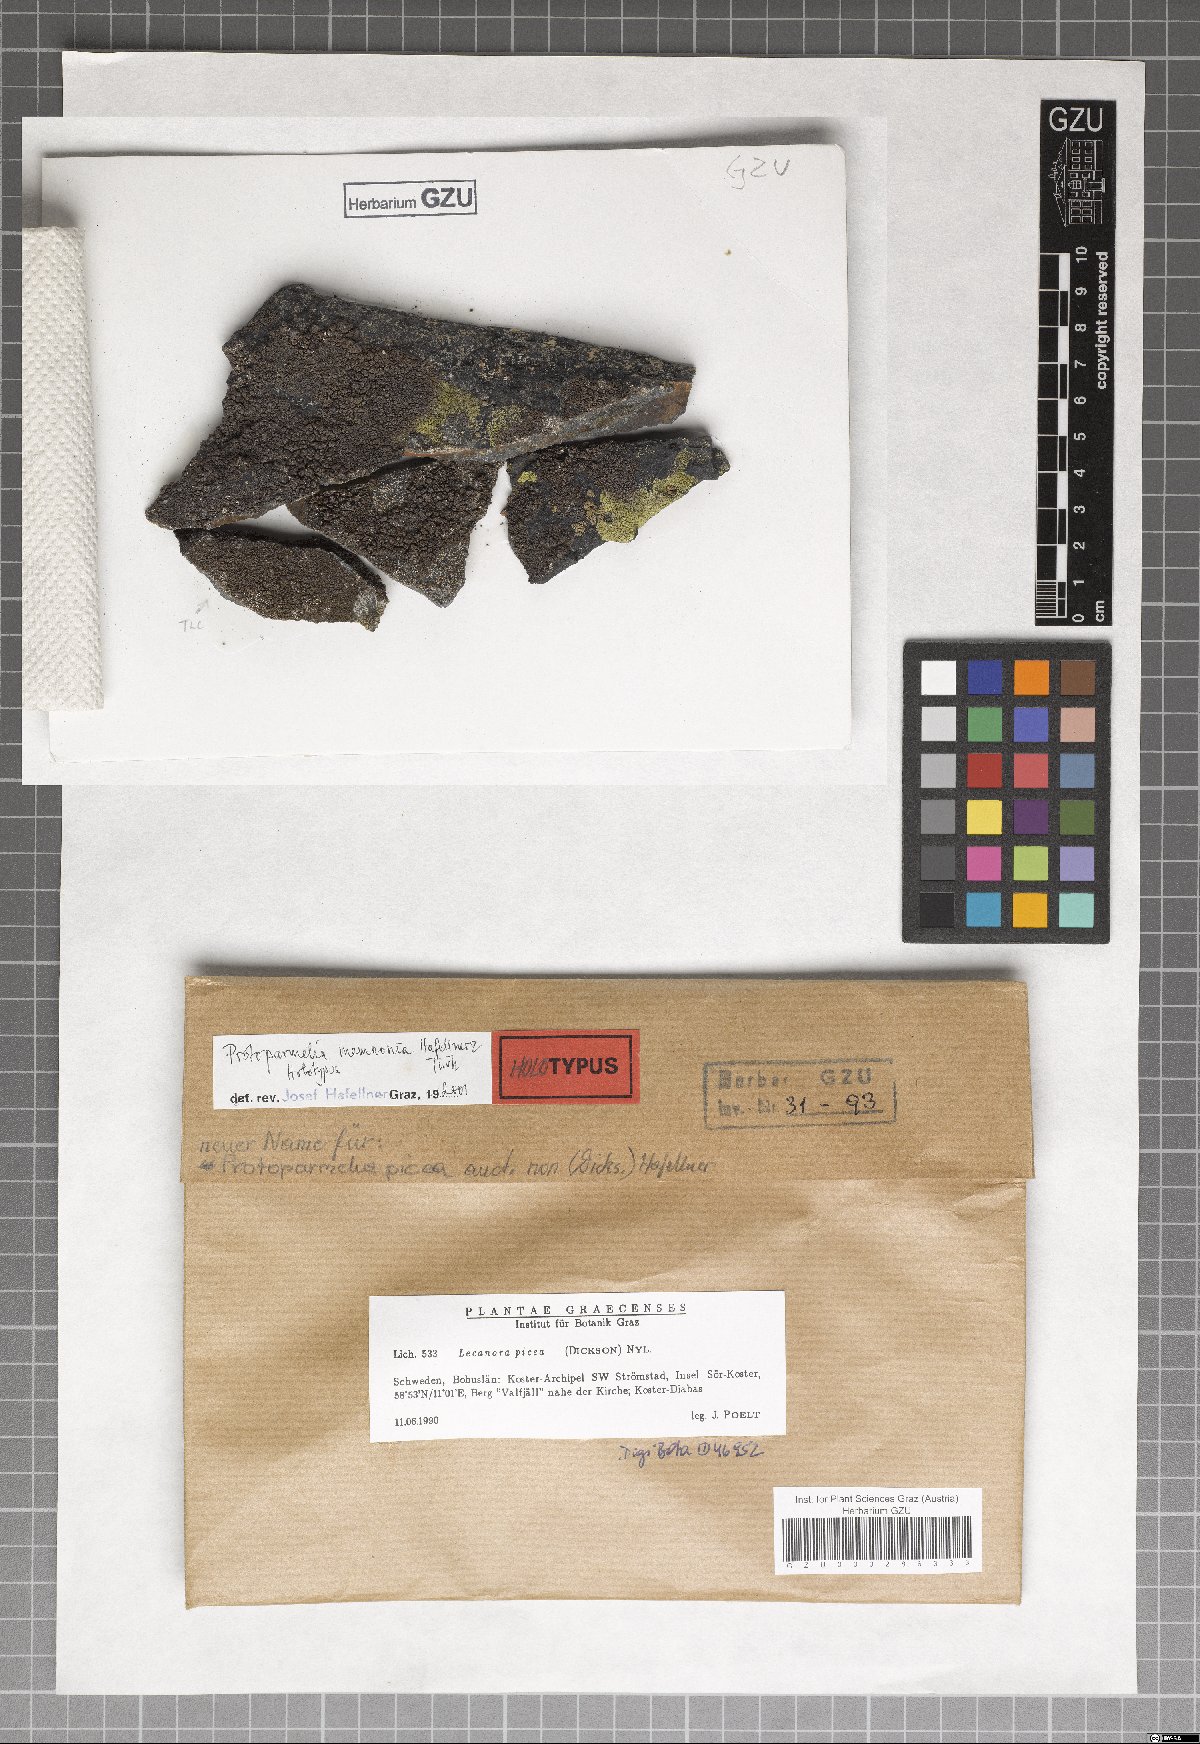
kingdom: Fungi
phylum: Ascomycota
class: Lecanoromycetes
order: Lecanorales
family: Parmeliaceae
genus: Protoparmelia
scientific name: Protoparmelia memnonia
